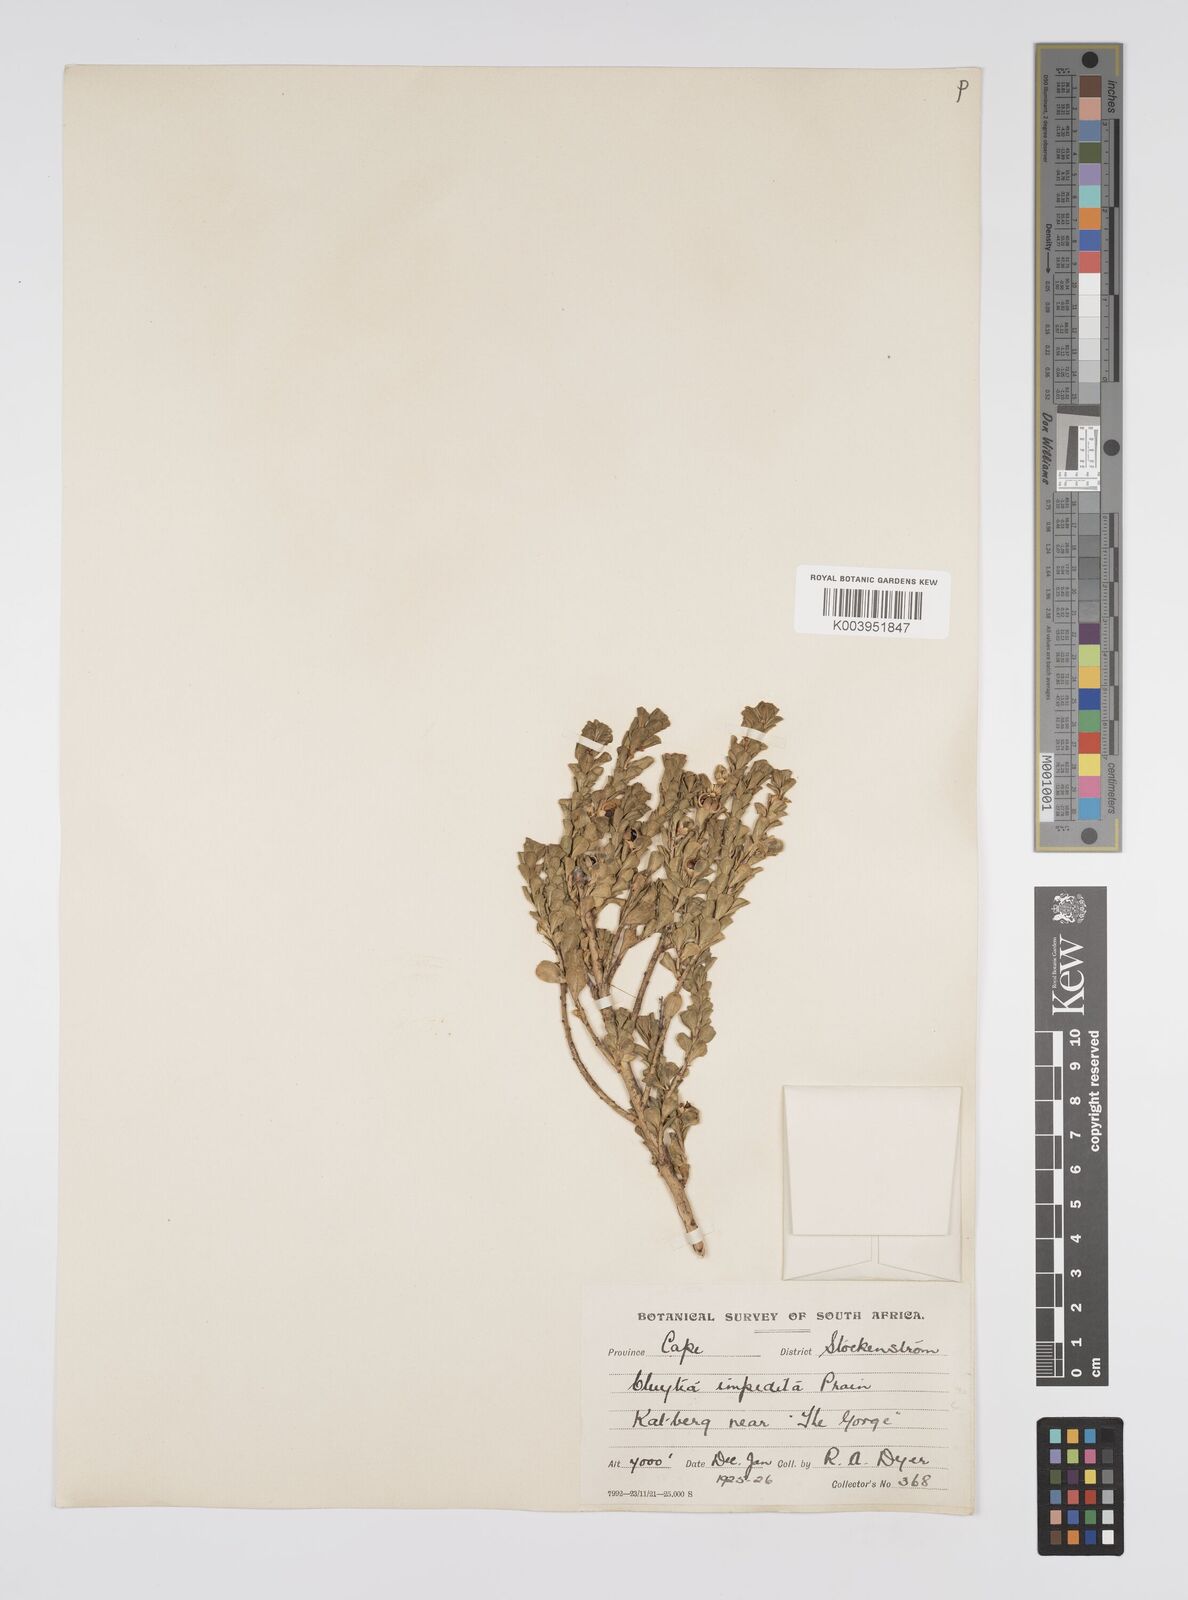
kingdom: Plantae
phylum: Tracheophyta
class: Magnoliopsida
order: Malpighiales
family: Peraceae
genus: Clutia
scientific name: Clutia impedita
